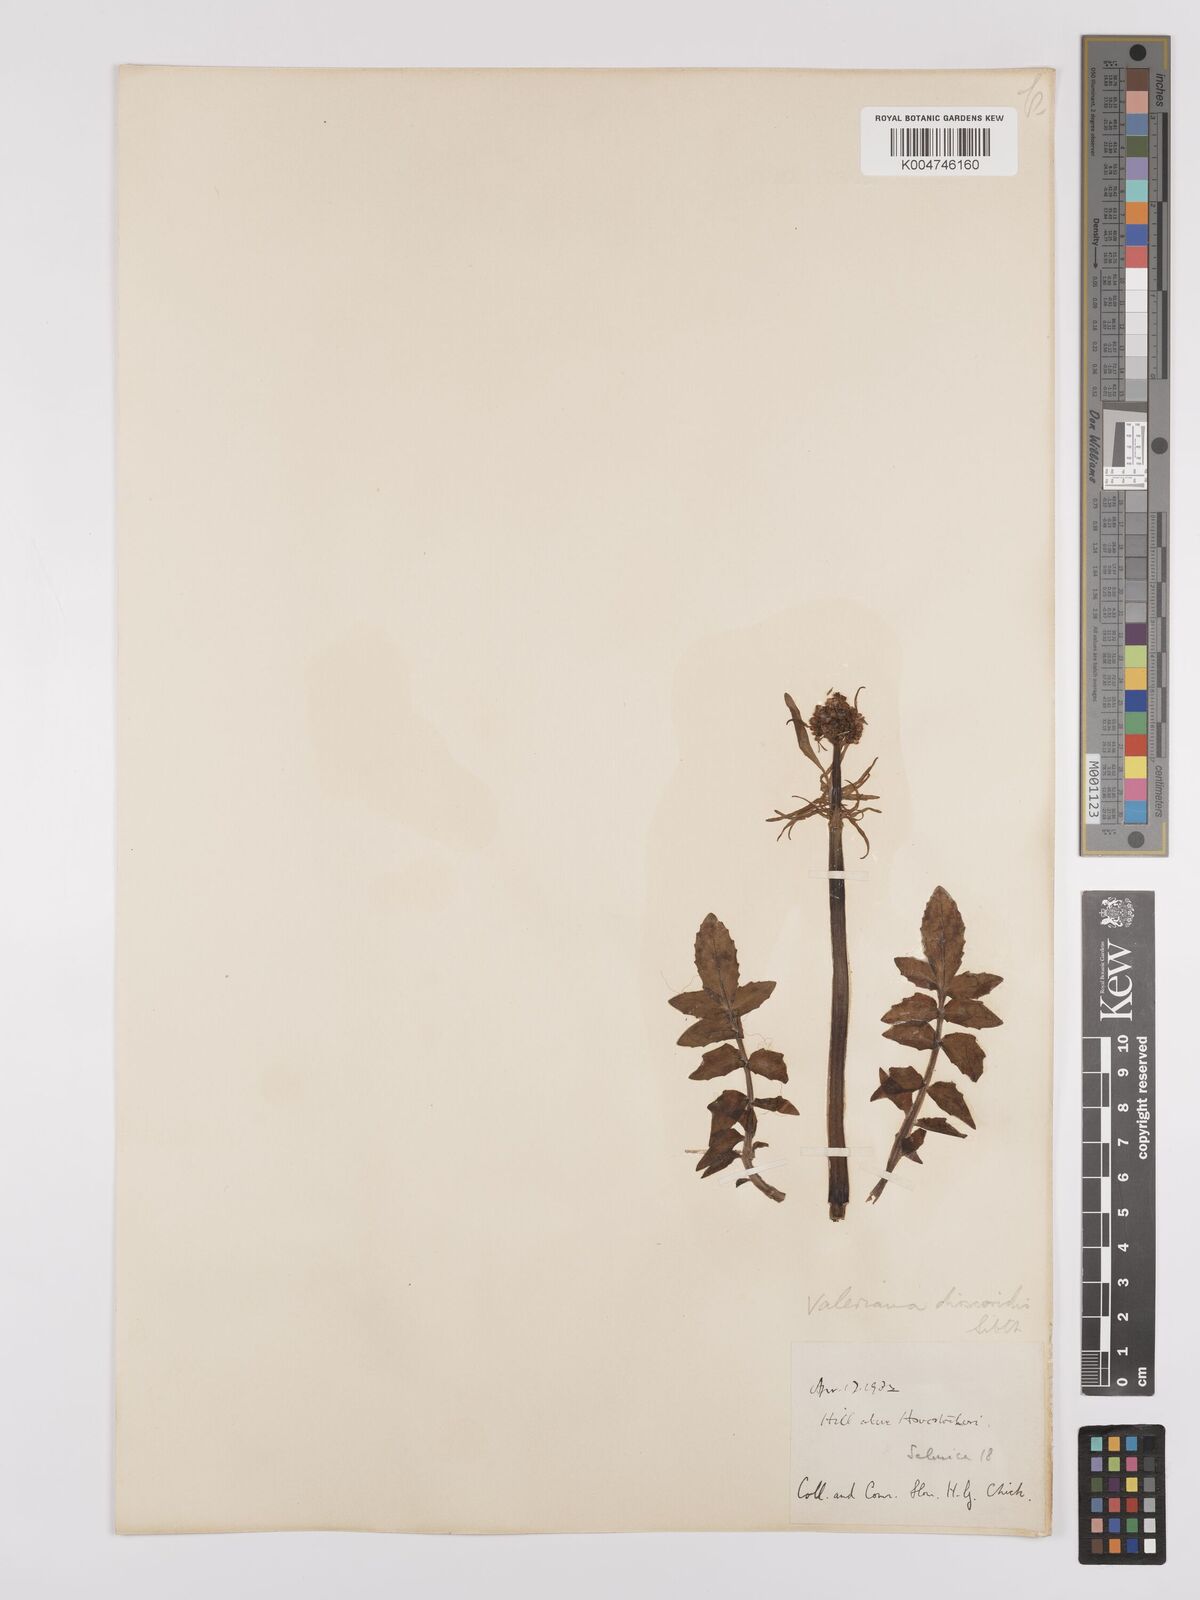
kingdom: Plantae
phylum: Tracheophyta
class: Magnoliopsida
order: Dipsacales
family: Caprifoliaceae
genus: Valeriana
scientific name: Valeriana dioscoridis
